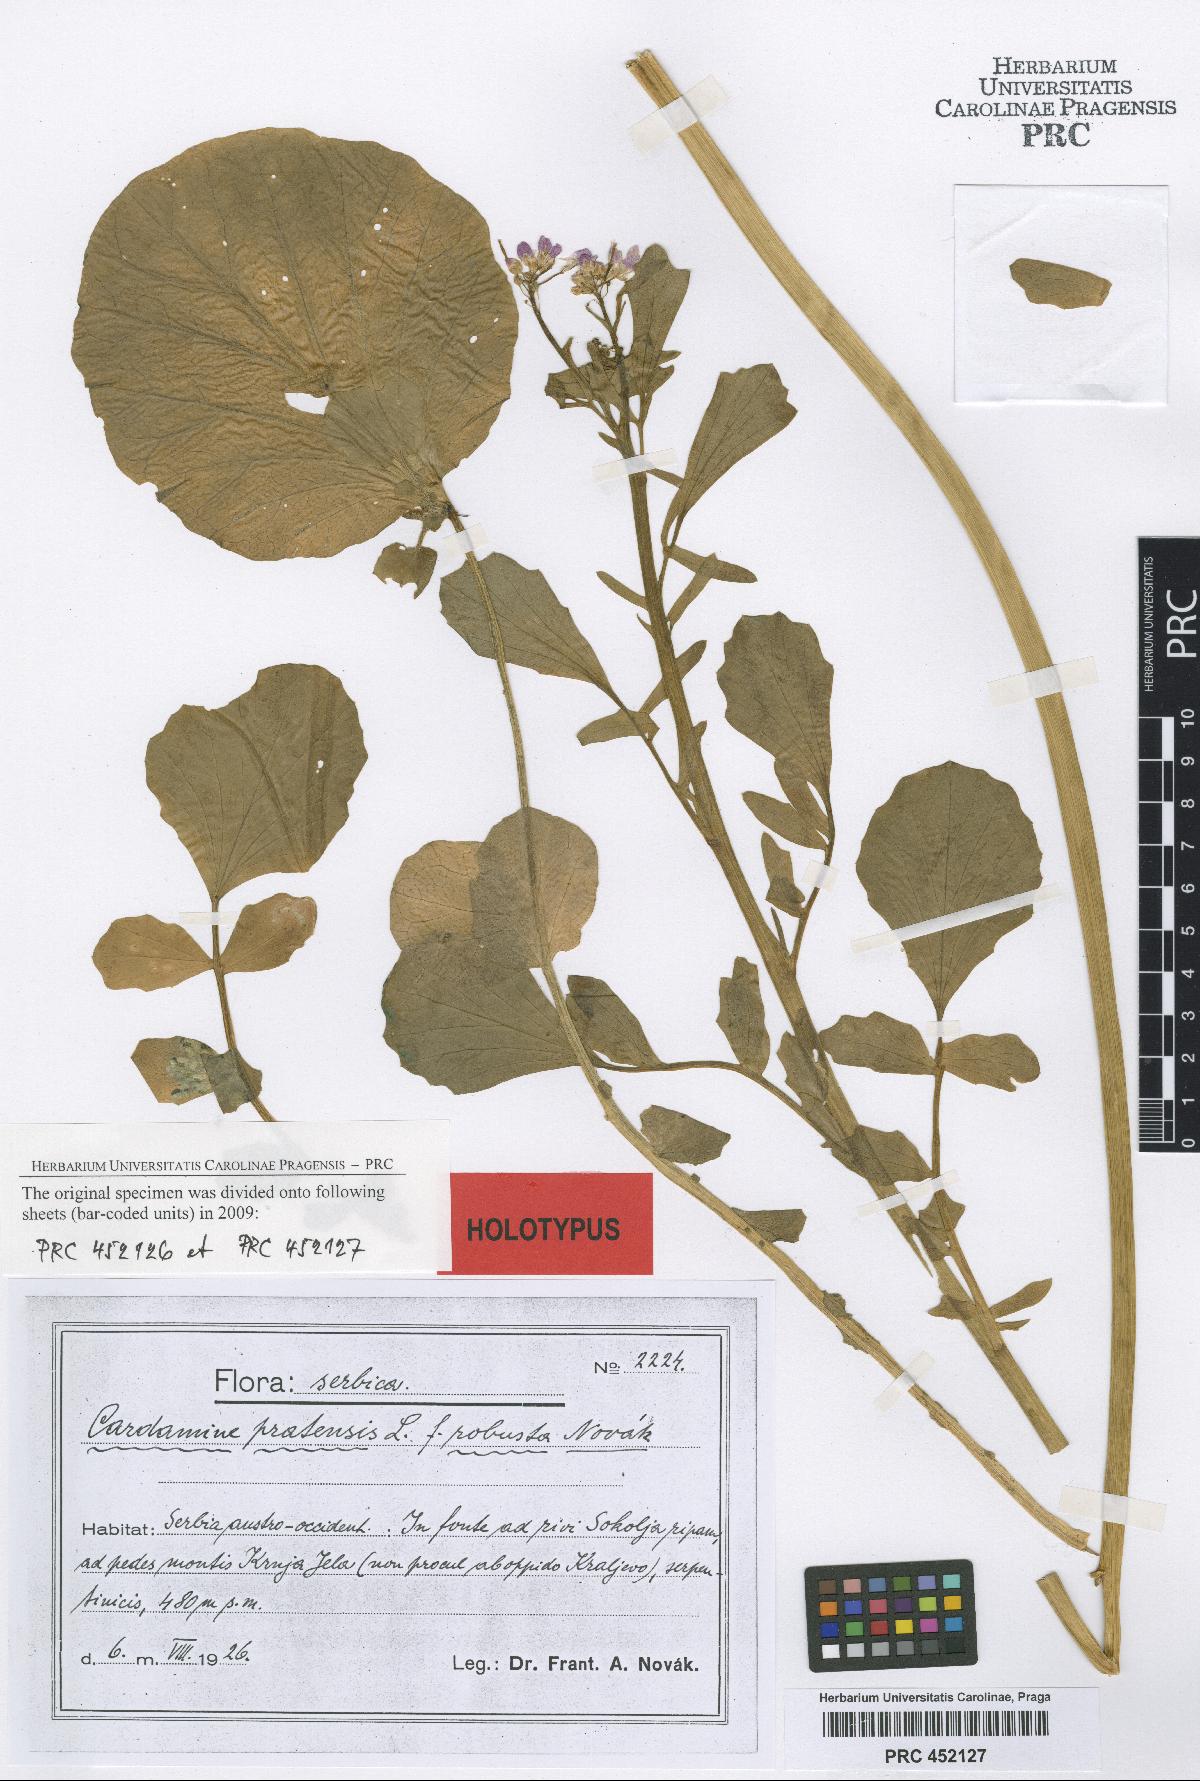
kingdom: Plantae
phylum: Tracheophyta
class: Magnoliopsida
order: Brassicales
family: Brassicaceae
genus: Cardamine
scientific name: Cardamine pratensis
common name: Cuckoo flower
